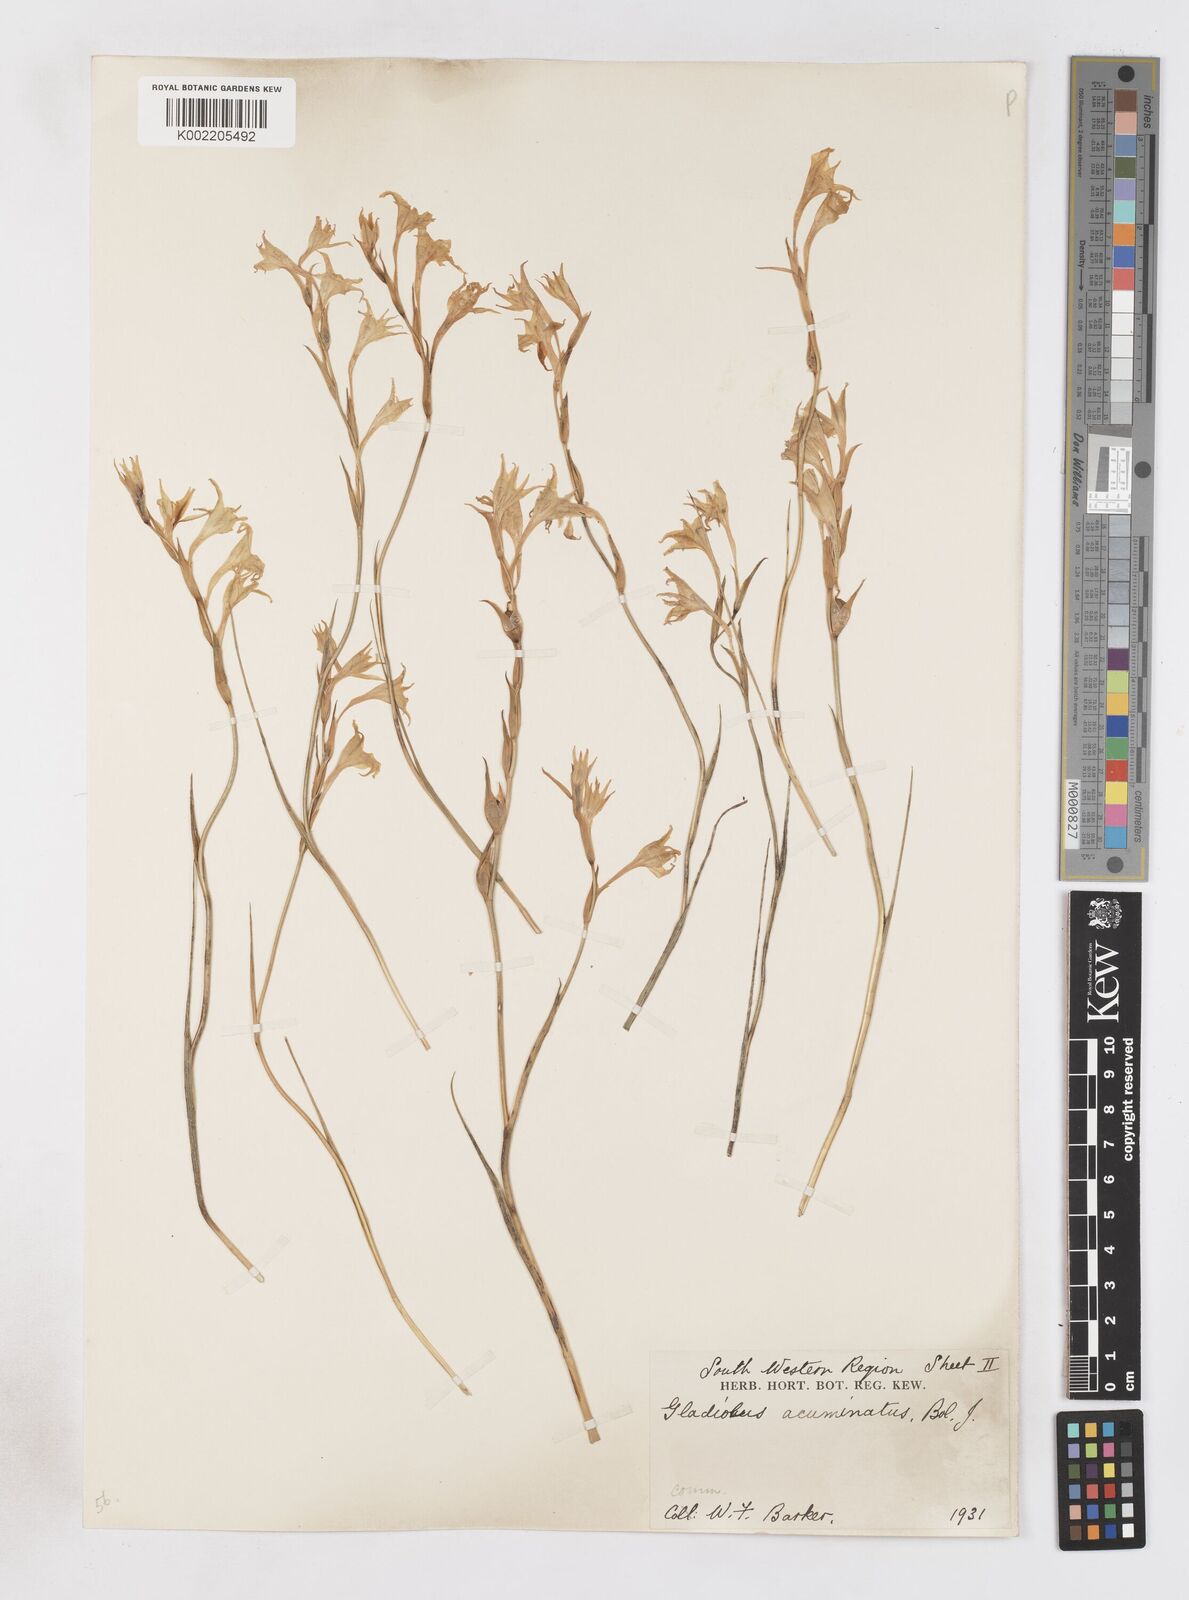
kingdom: Plantae
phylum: Tracheophyta
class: Liliopsida
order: Asparagales
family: Iridaceae
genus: Gladiolus
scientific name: Gladiolus acuminatus
